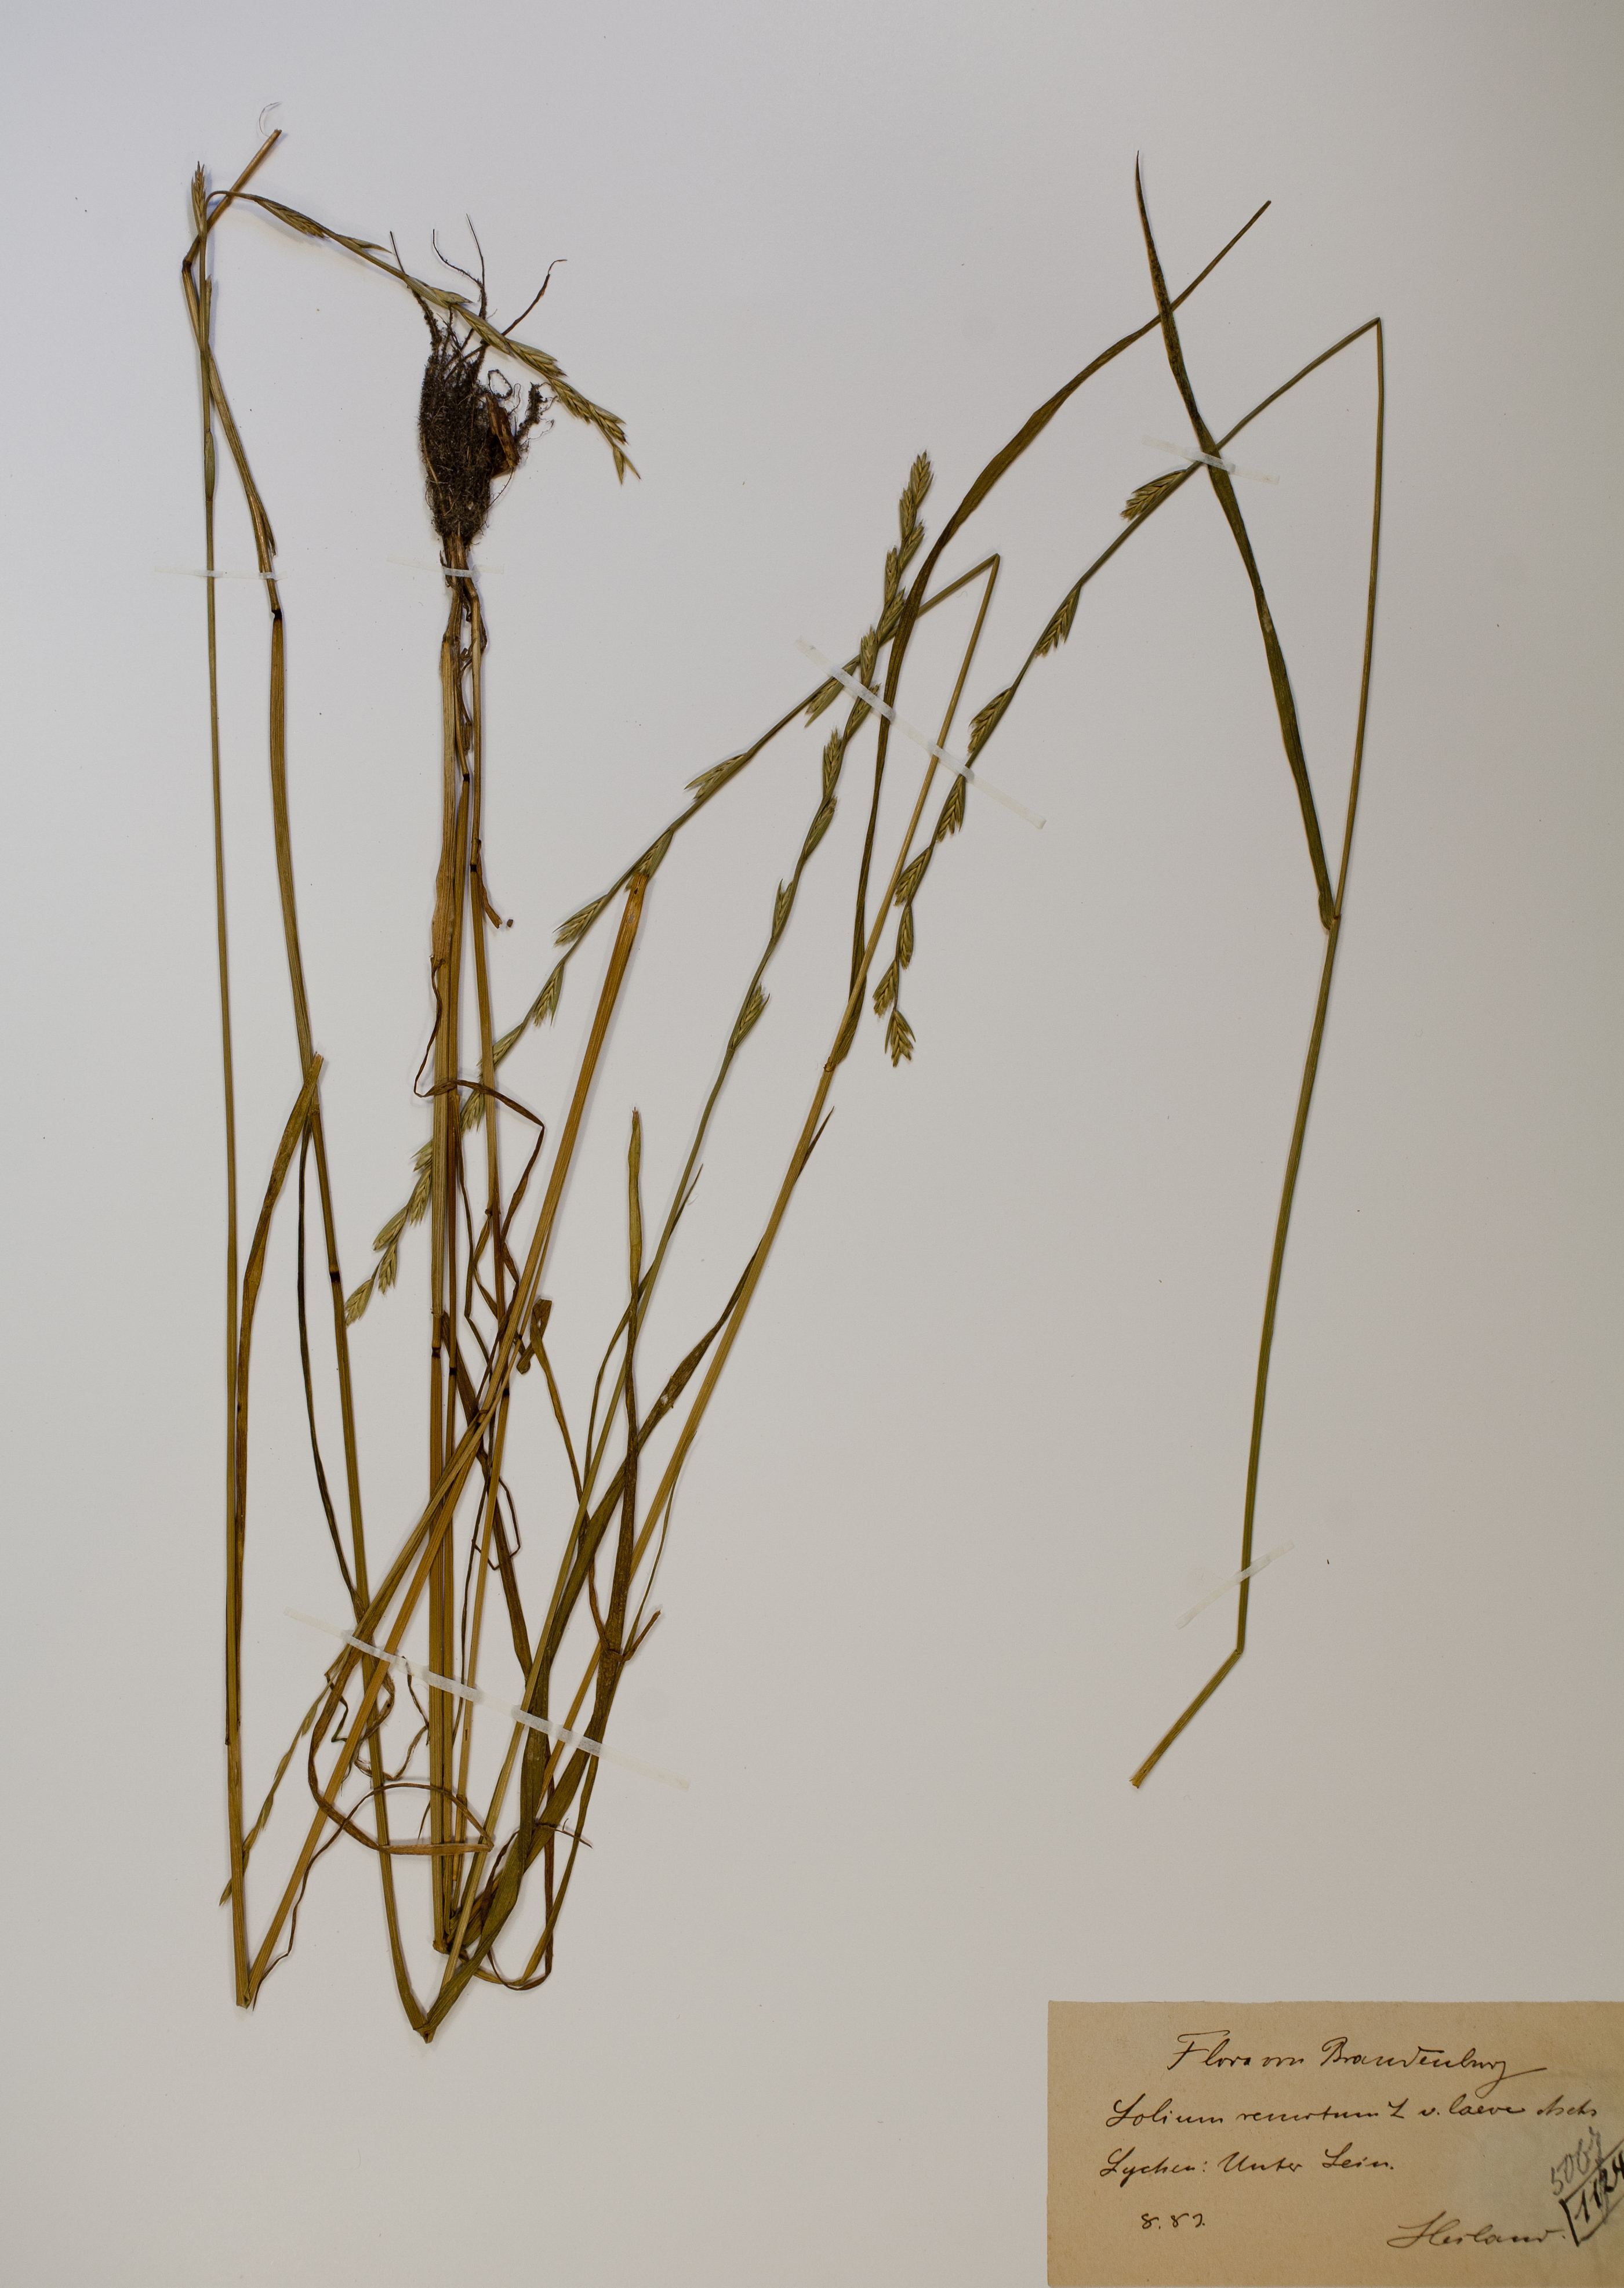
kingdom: Plantae
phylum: Tracheophyta
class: Liliopsida
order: Poales
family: Poaceae
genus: Lolium
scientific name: Lolium remotum
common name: Flaxfield rye-grass
